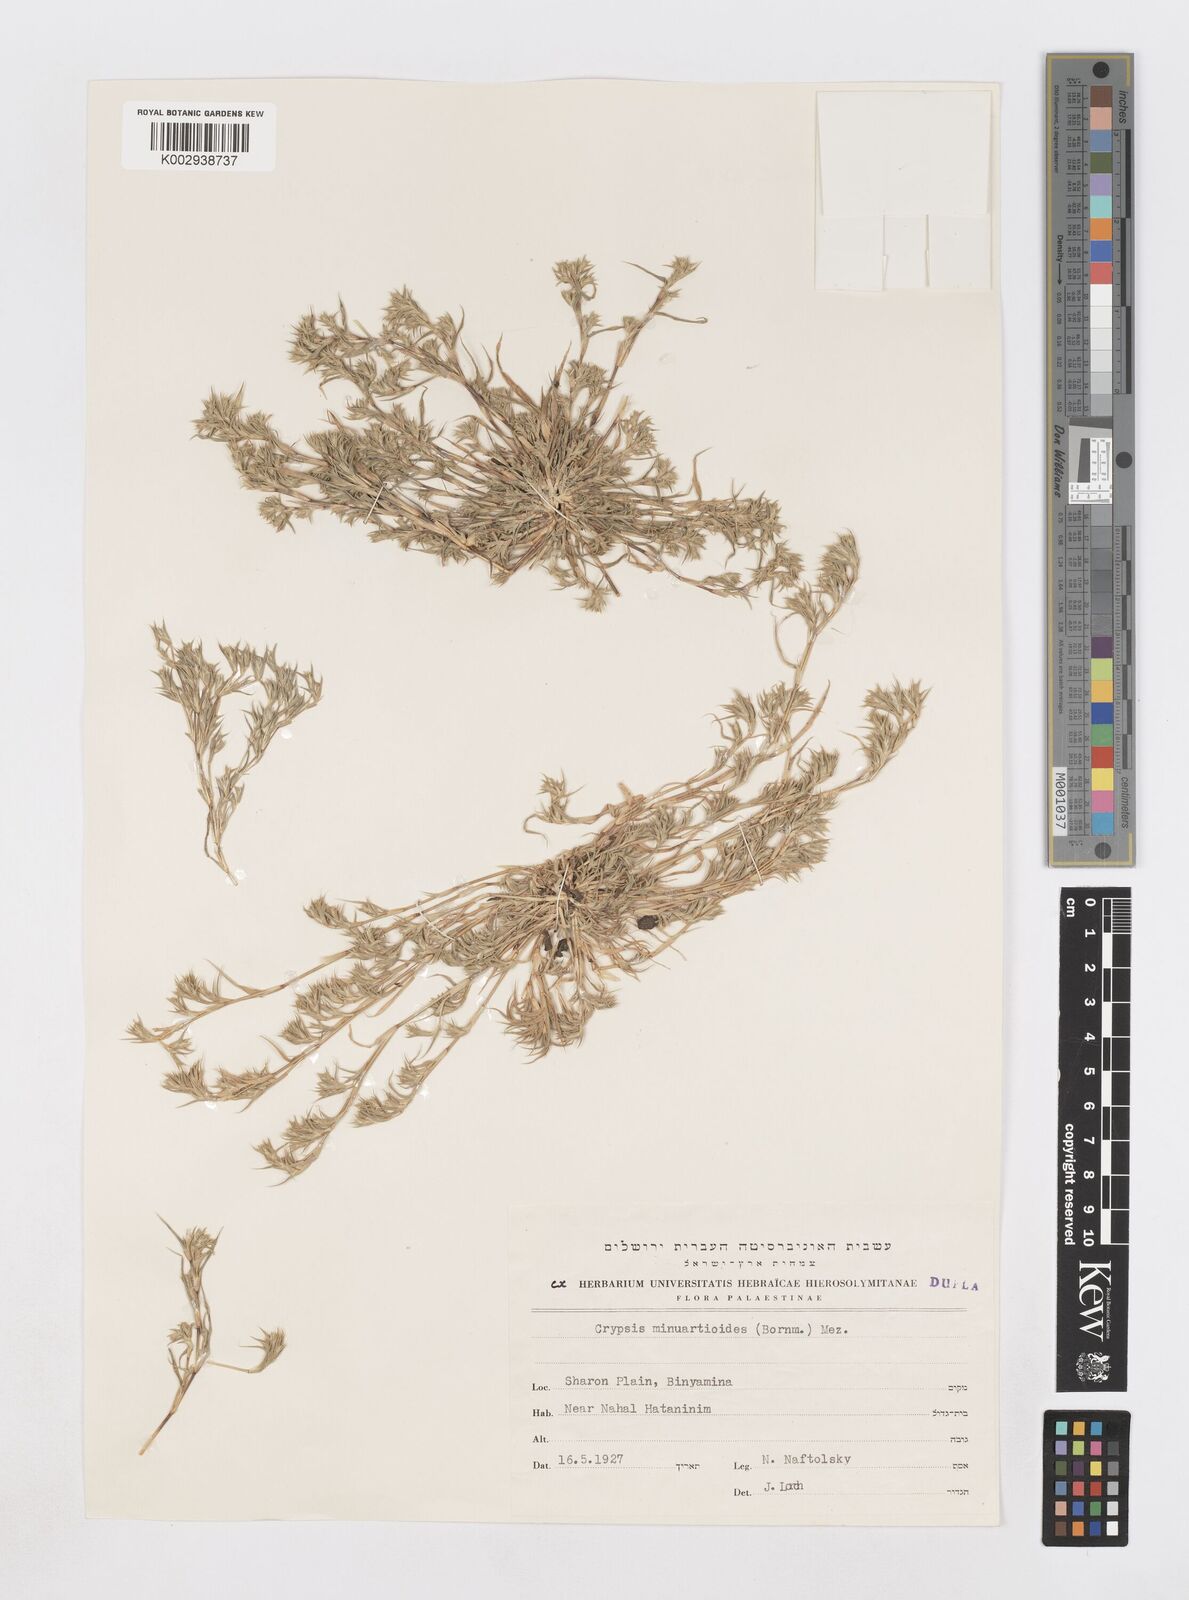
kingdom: Plantae
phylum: Tracheophyta
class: Liliopsida
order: Poales
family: Poaceae
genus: Sporobolus
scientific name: Sporobolus minuartioides
